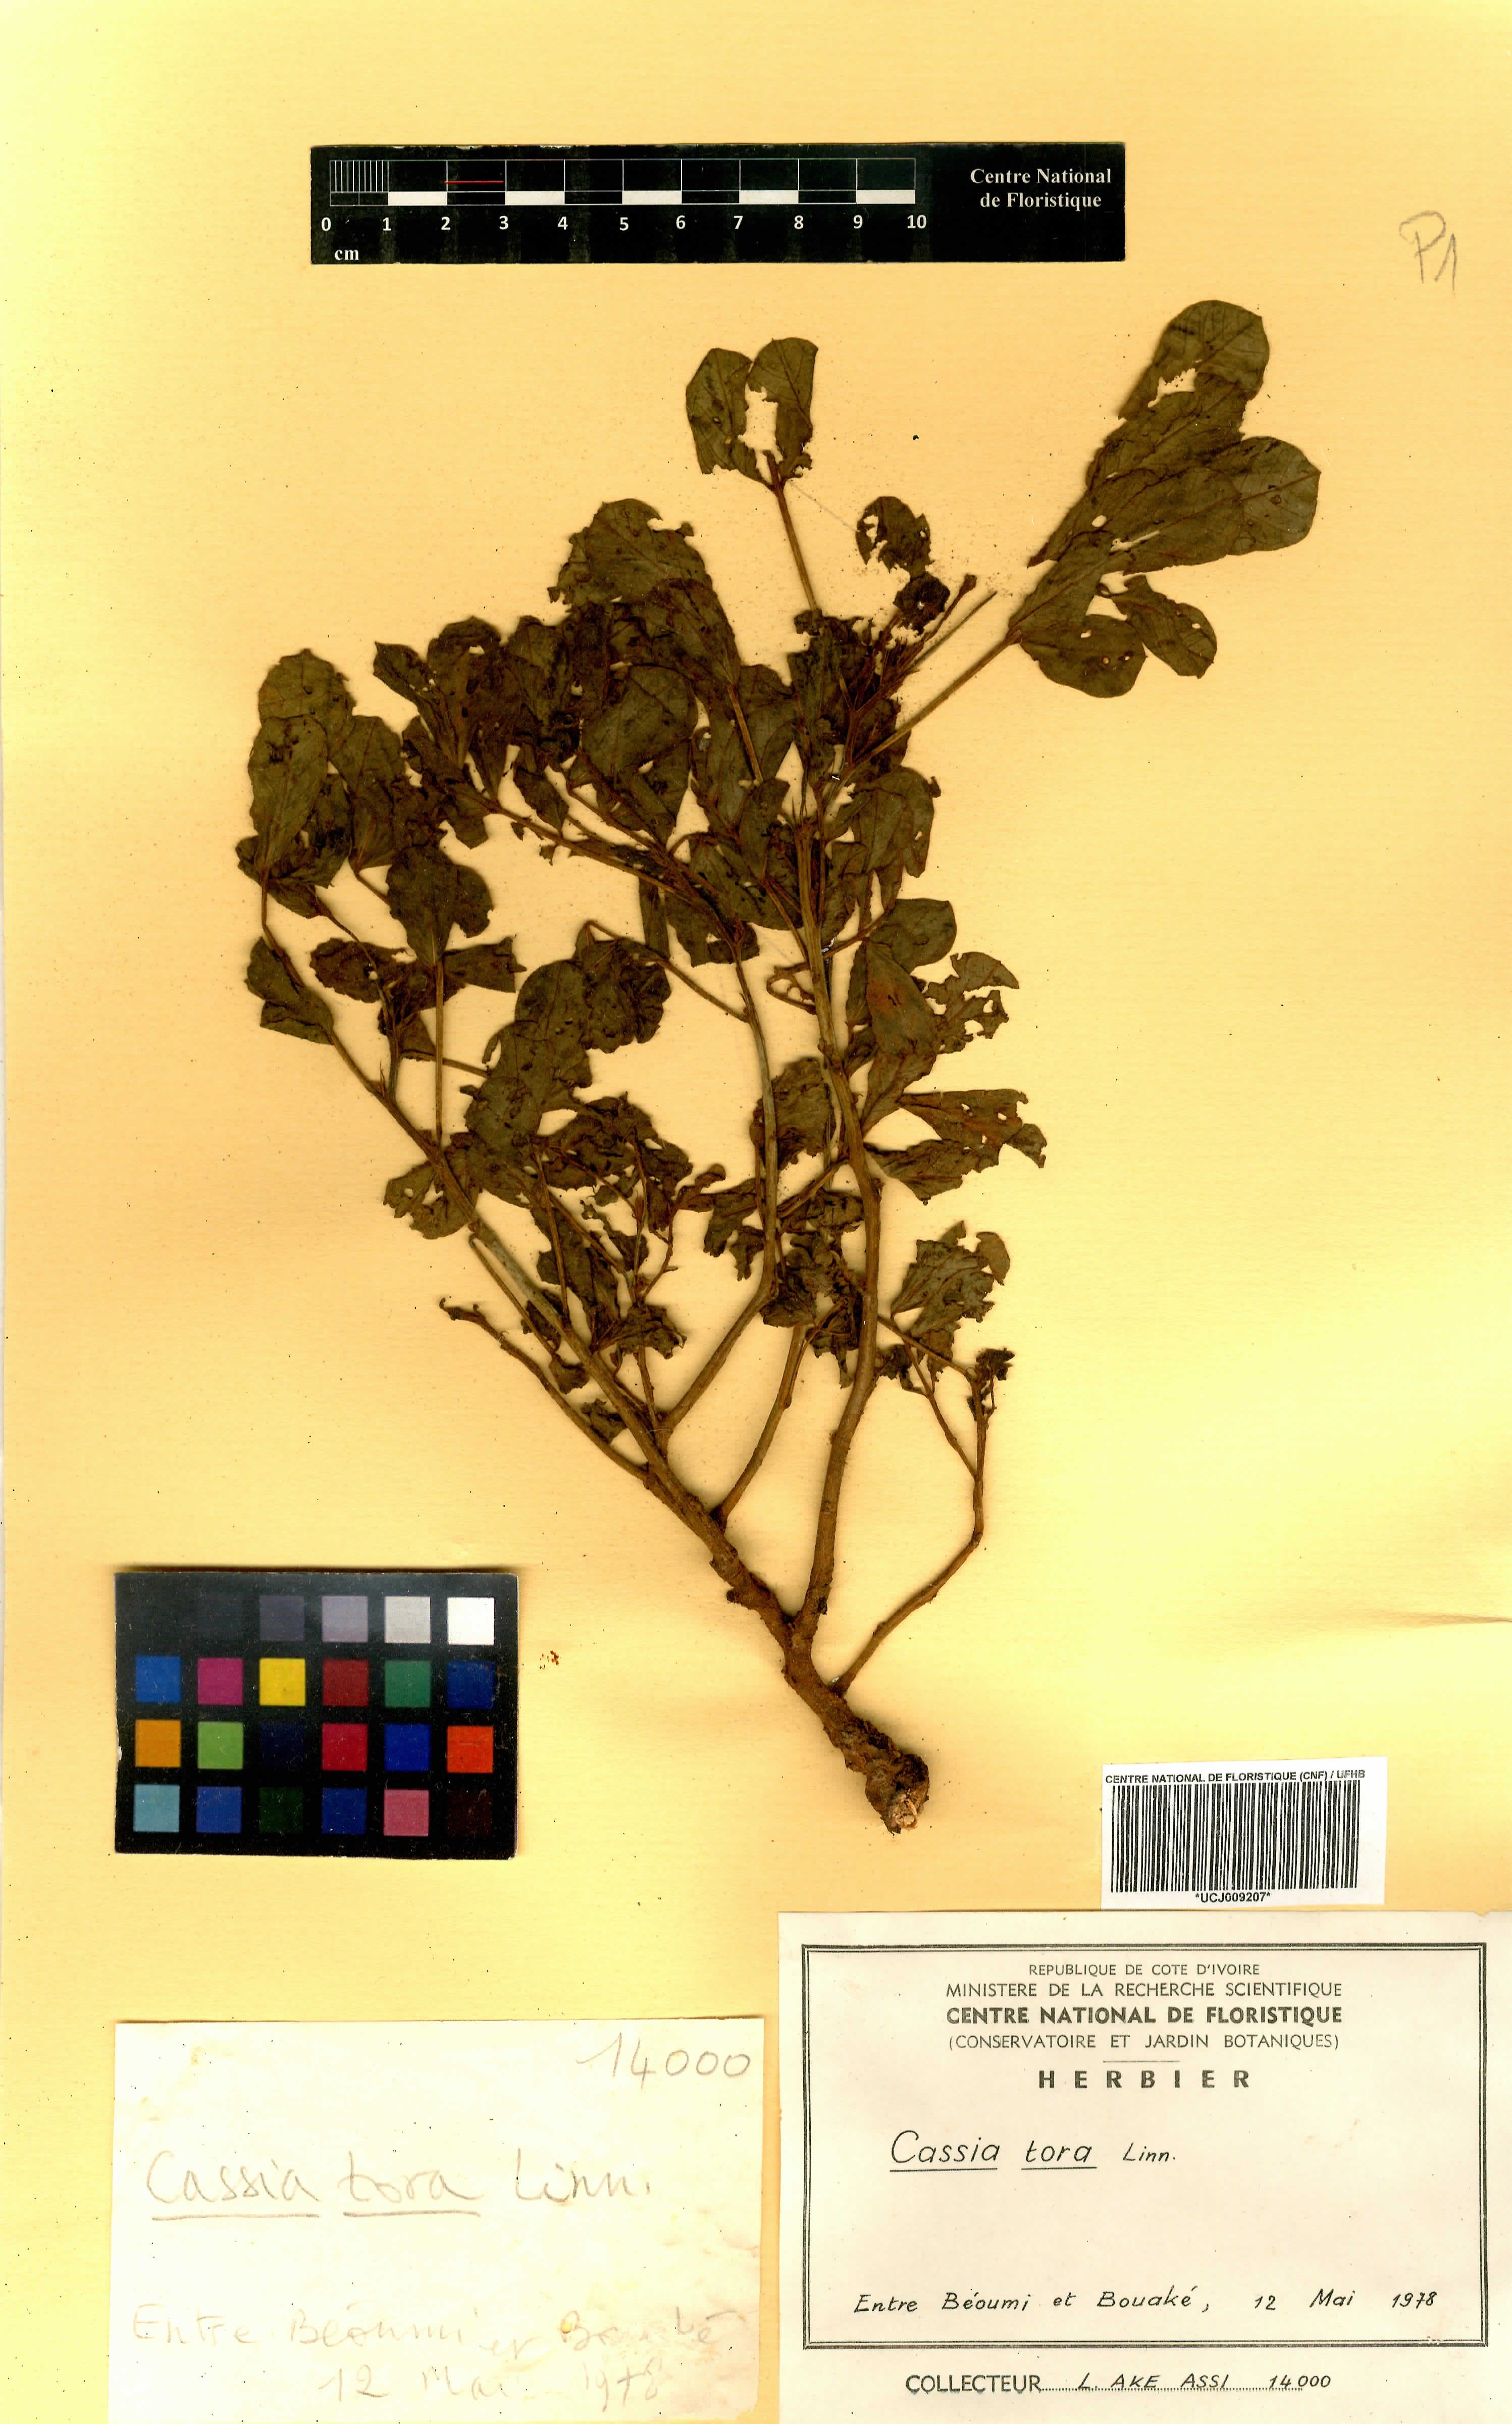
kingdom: Plantae
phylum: Tracheophyta
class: Magnoliopsida
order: Fabales
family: Fabaceae
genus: Senna
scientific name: Senna tora
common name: Sickle senna
